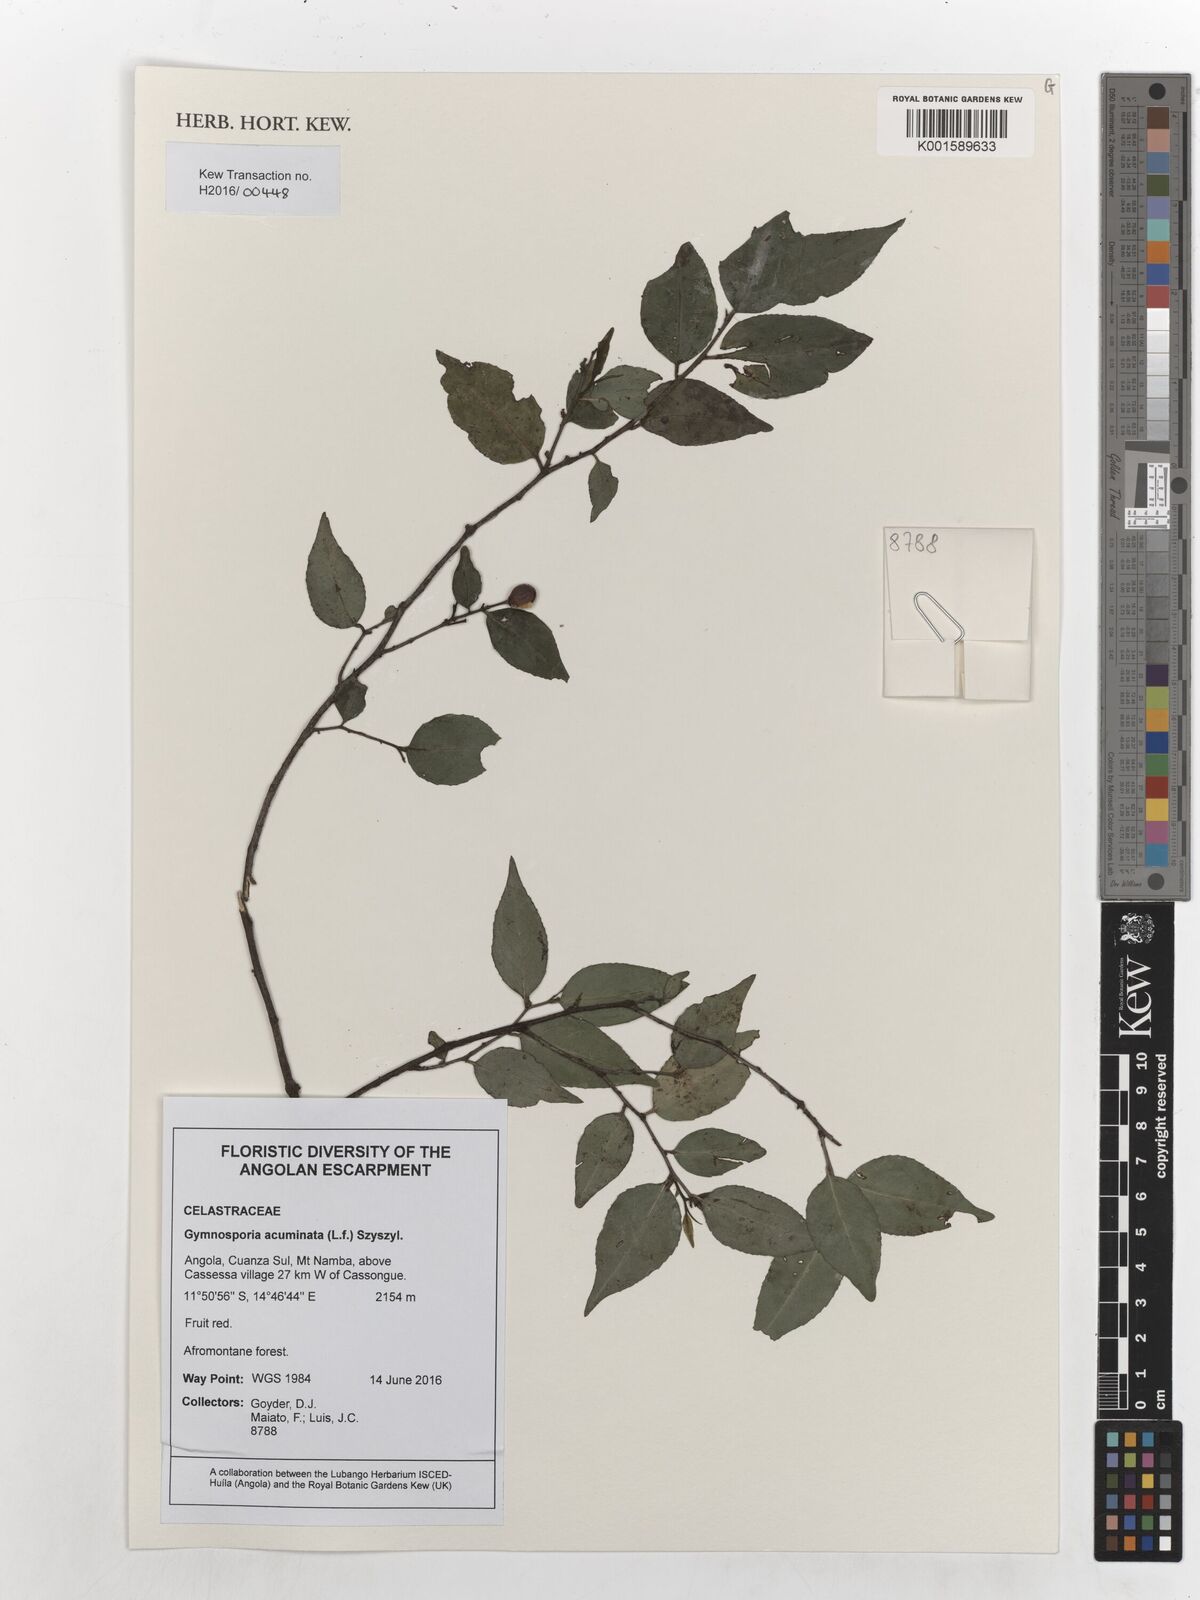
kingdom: Plantae
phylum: Tracheophyta
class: Magnoliopsida
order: Celastrales
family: Celastraceae
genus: Gymnosporia
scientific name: Gymnosporia acuminata
